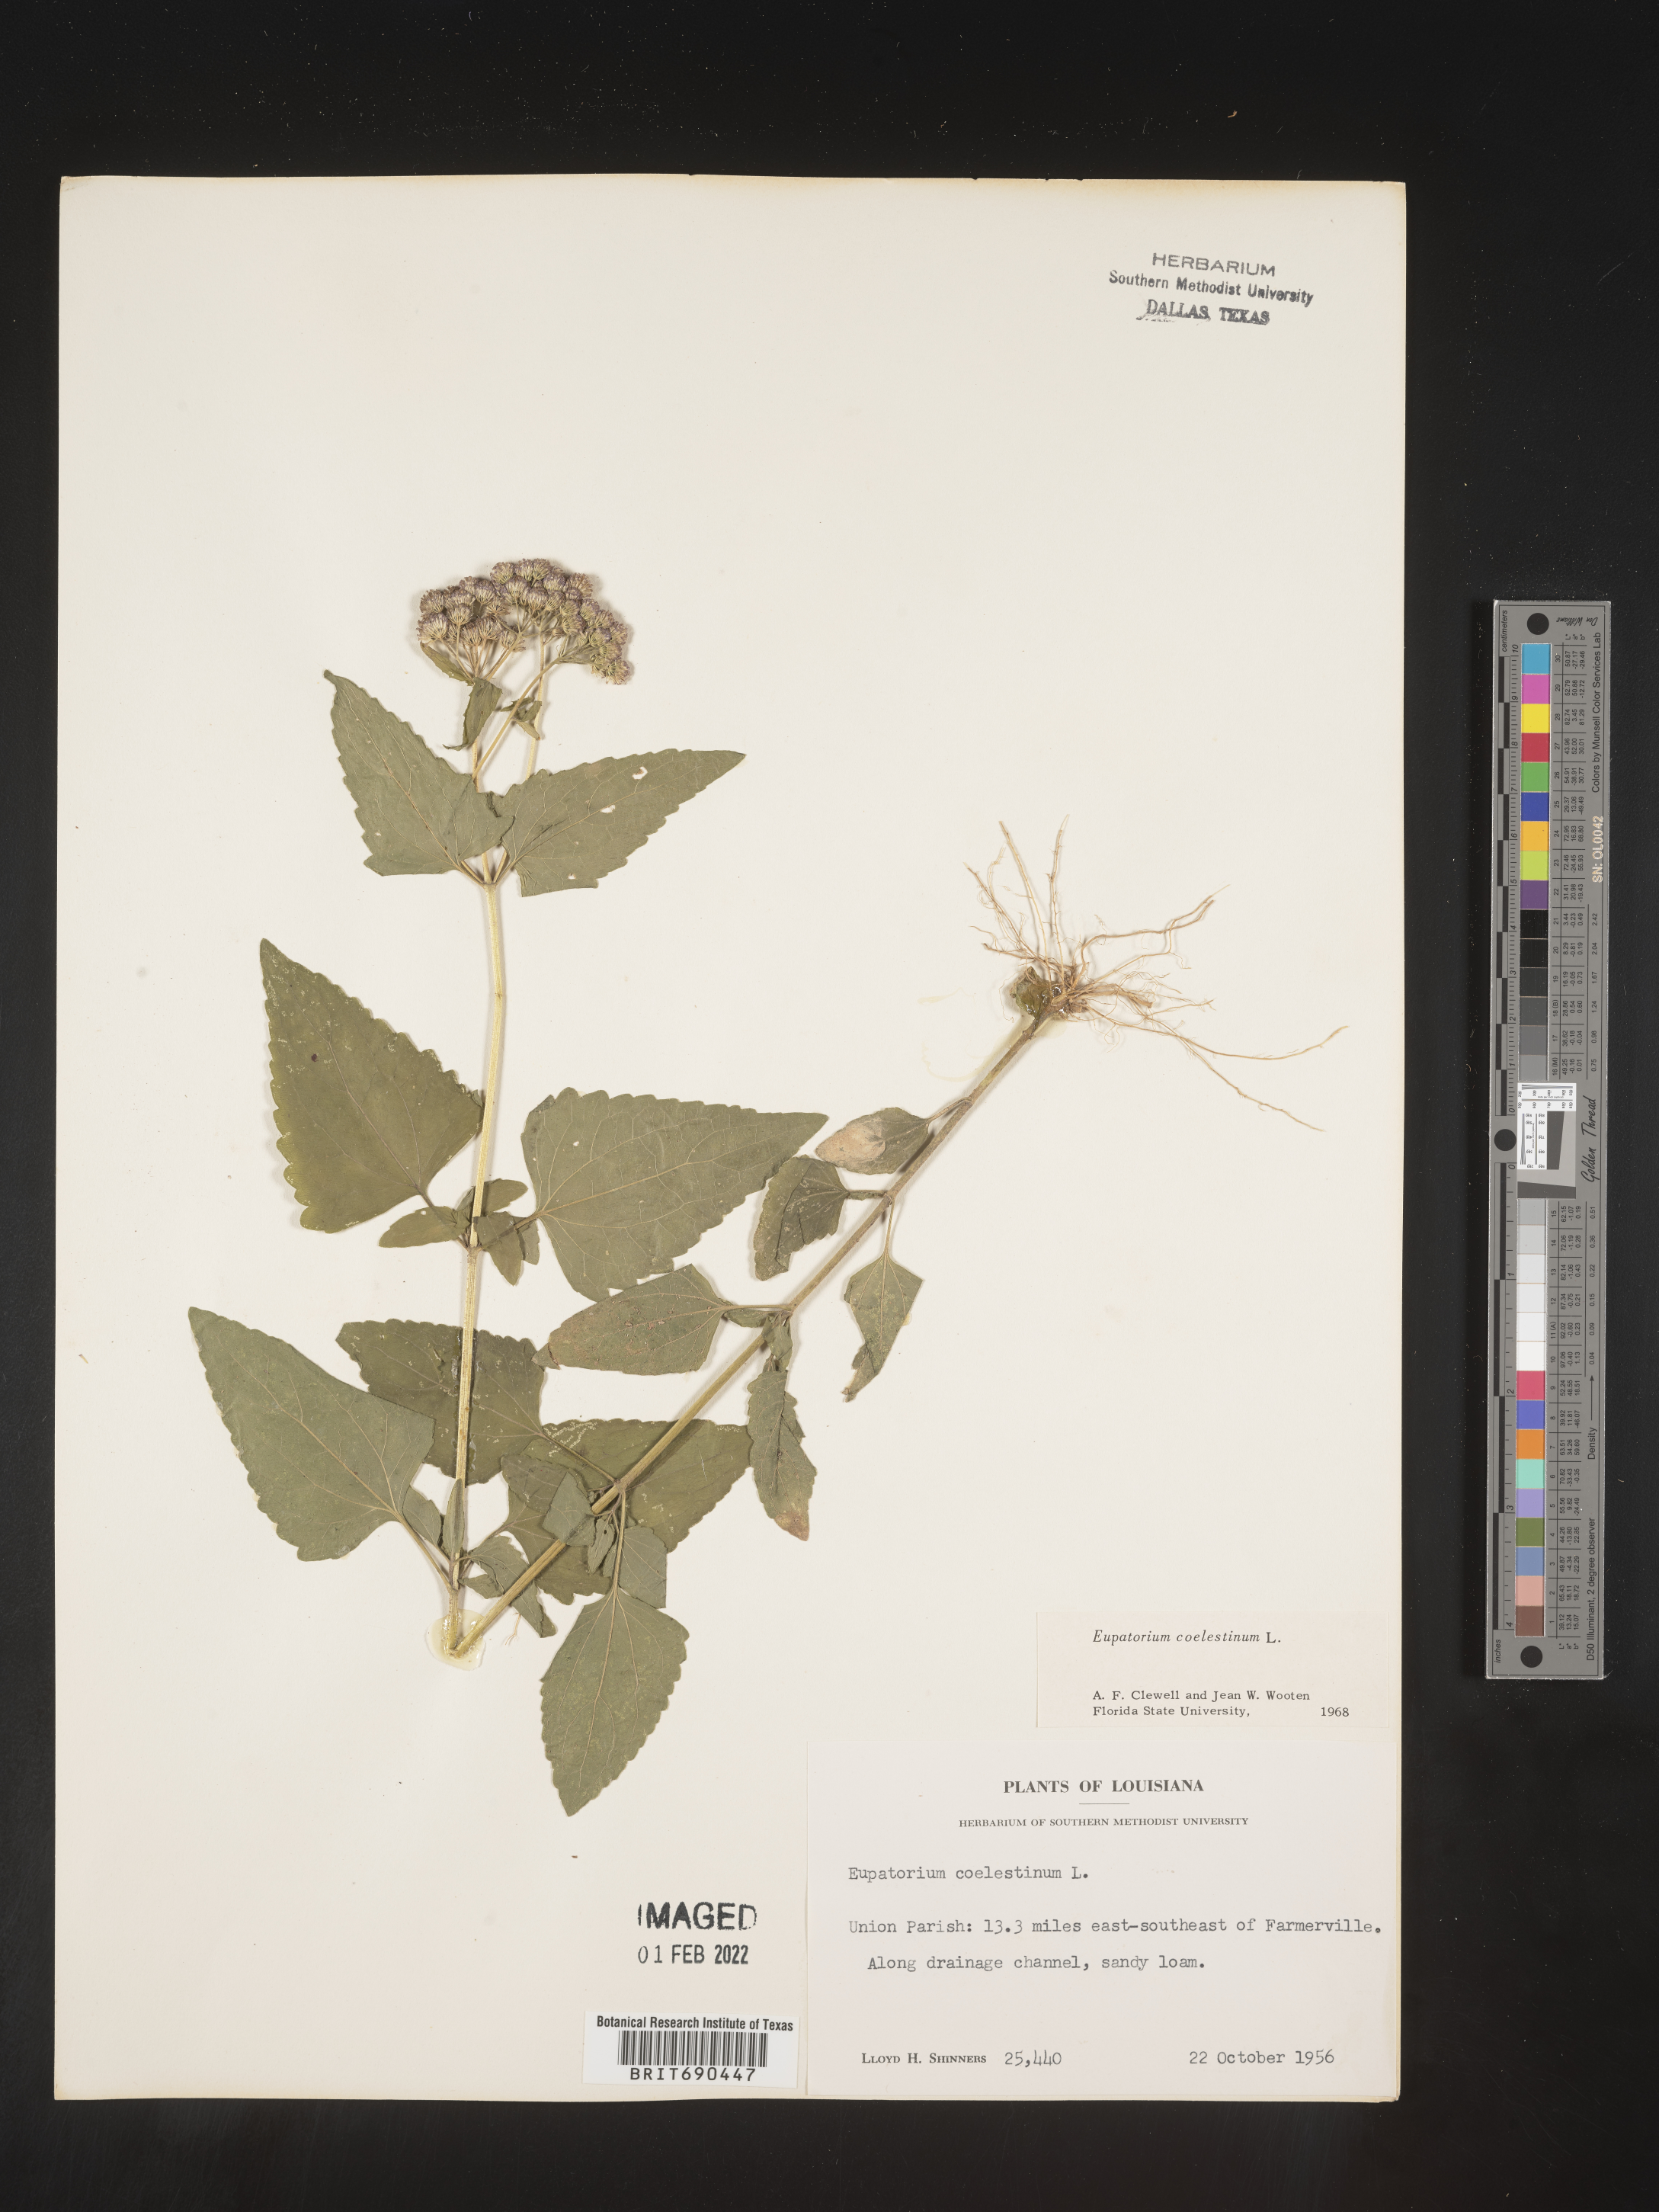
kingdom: Plantae
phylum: Tracheophyta
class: Magnoliopsida
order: Asterales
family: Asteraceae
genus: Conoclinium
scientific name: Conoclinium coelestinum
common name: Blue mistflower
